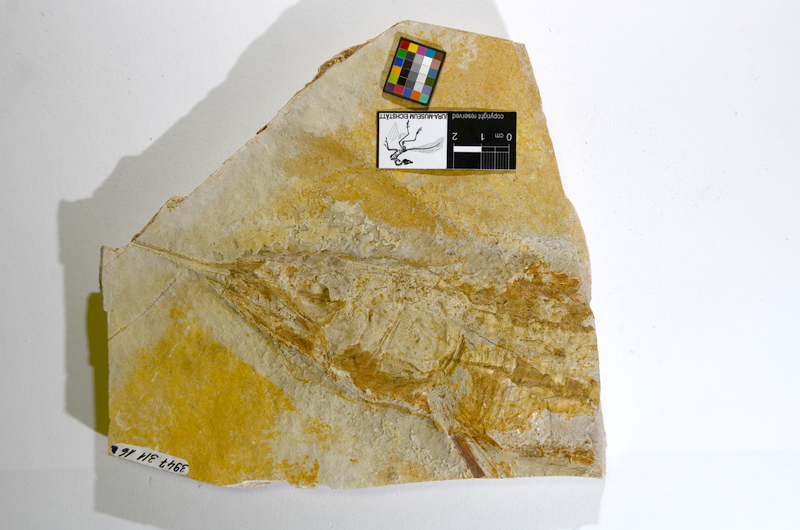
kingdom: Animalia
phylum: Chordata
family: Aspidorhynchidae
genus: Aspidorhynchus
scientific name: Aspidorhynchus acutirostris
